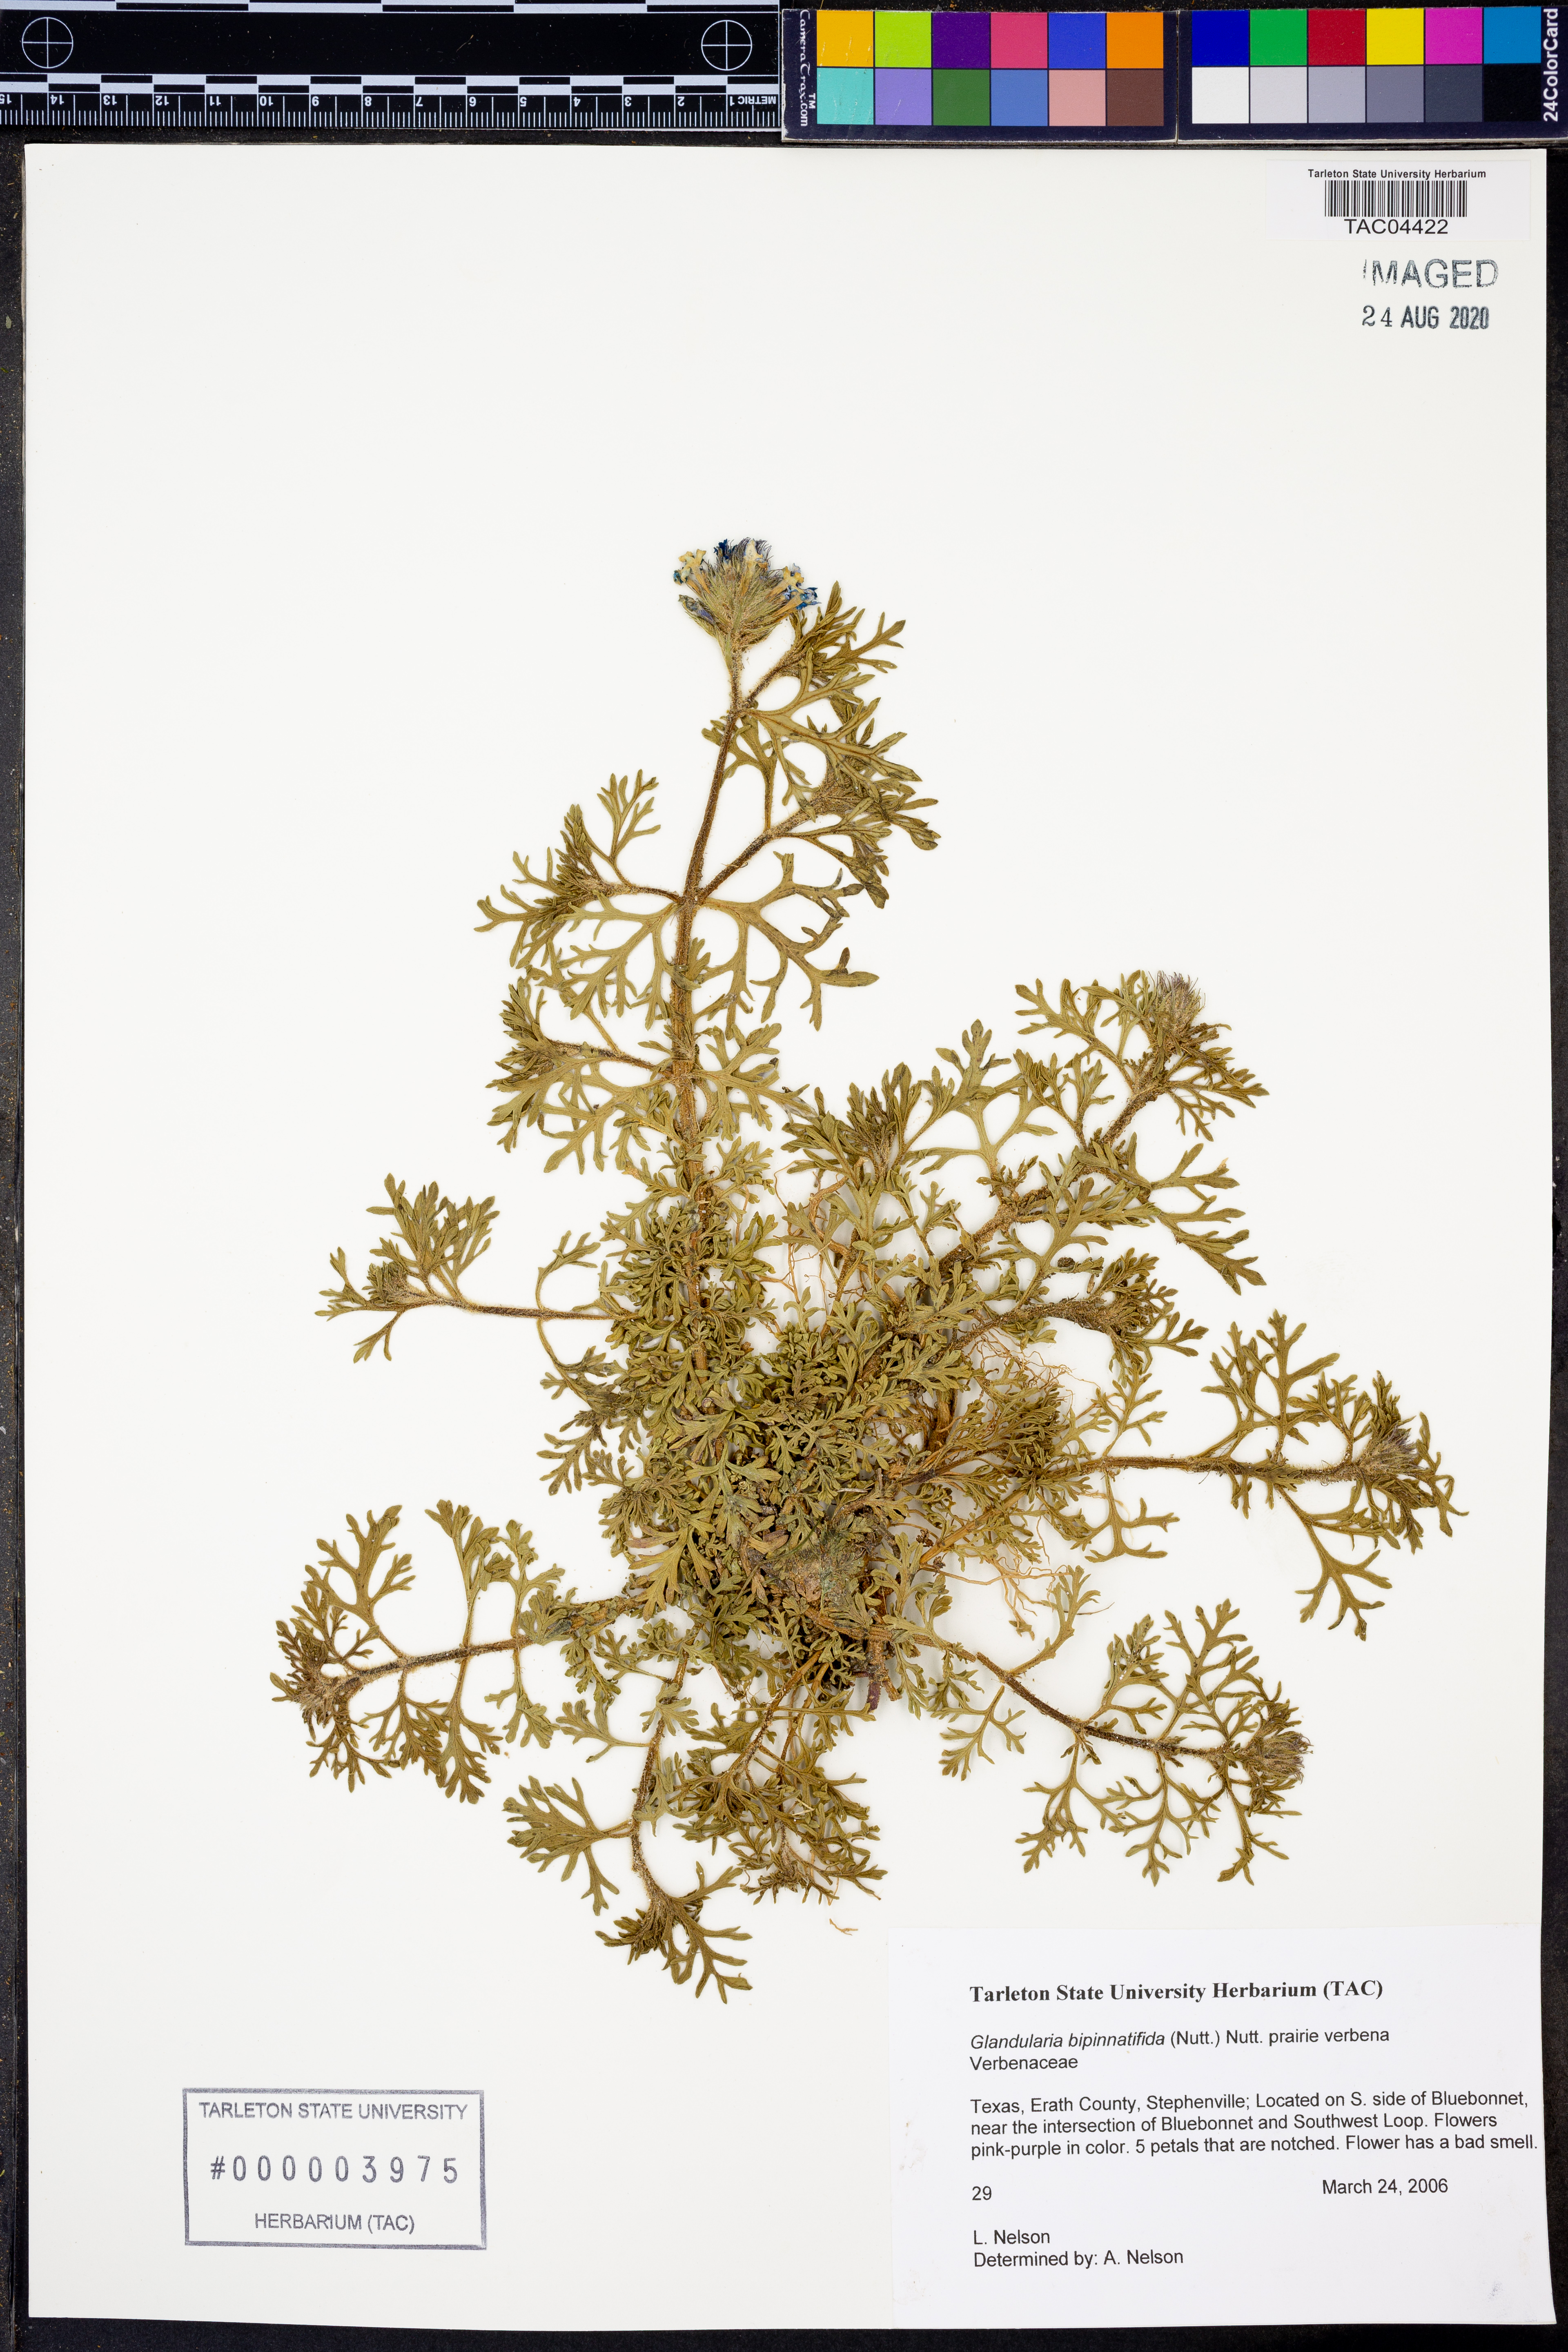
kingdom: Plantae
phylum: Tracheophyta
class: Magnoliopsida
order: Lamiales
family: Verbenaceae
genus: Verbena
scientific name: Verbena bipinnatifida
